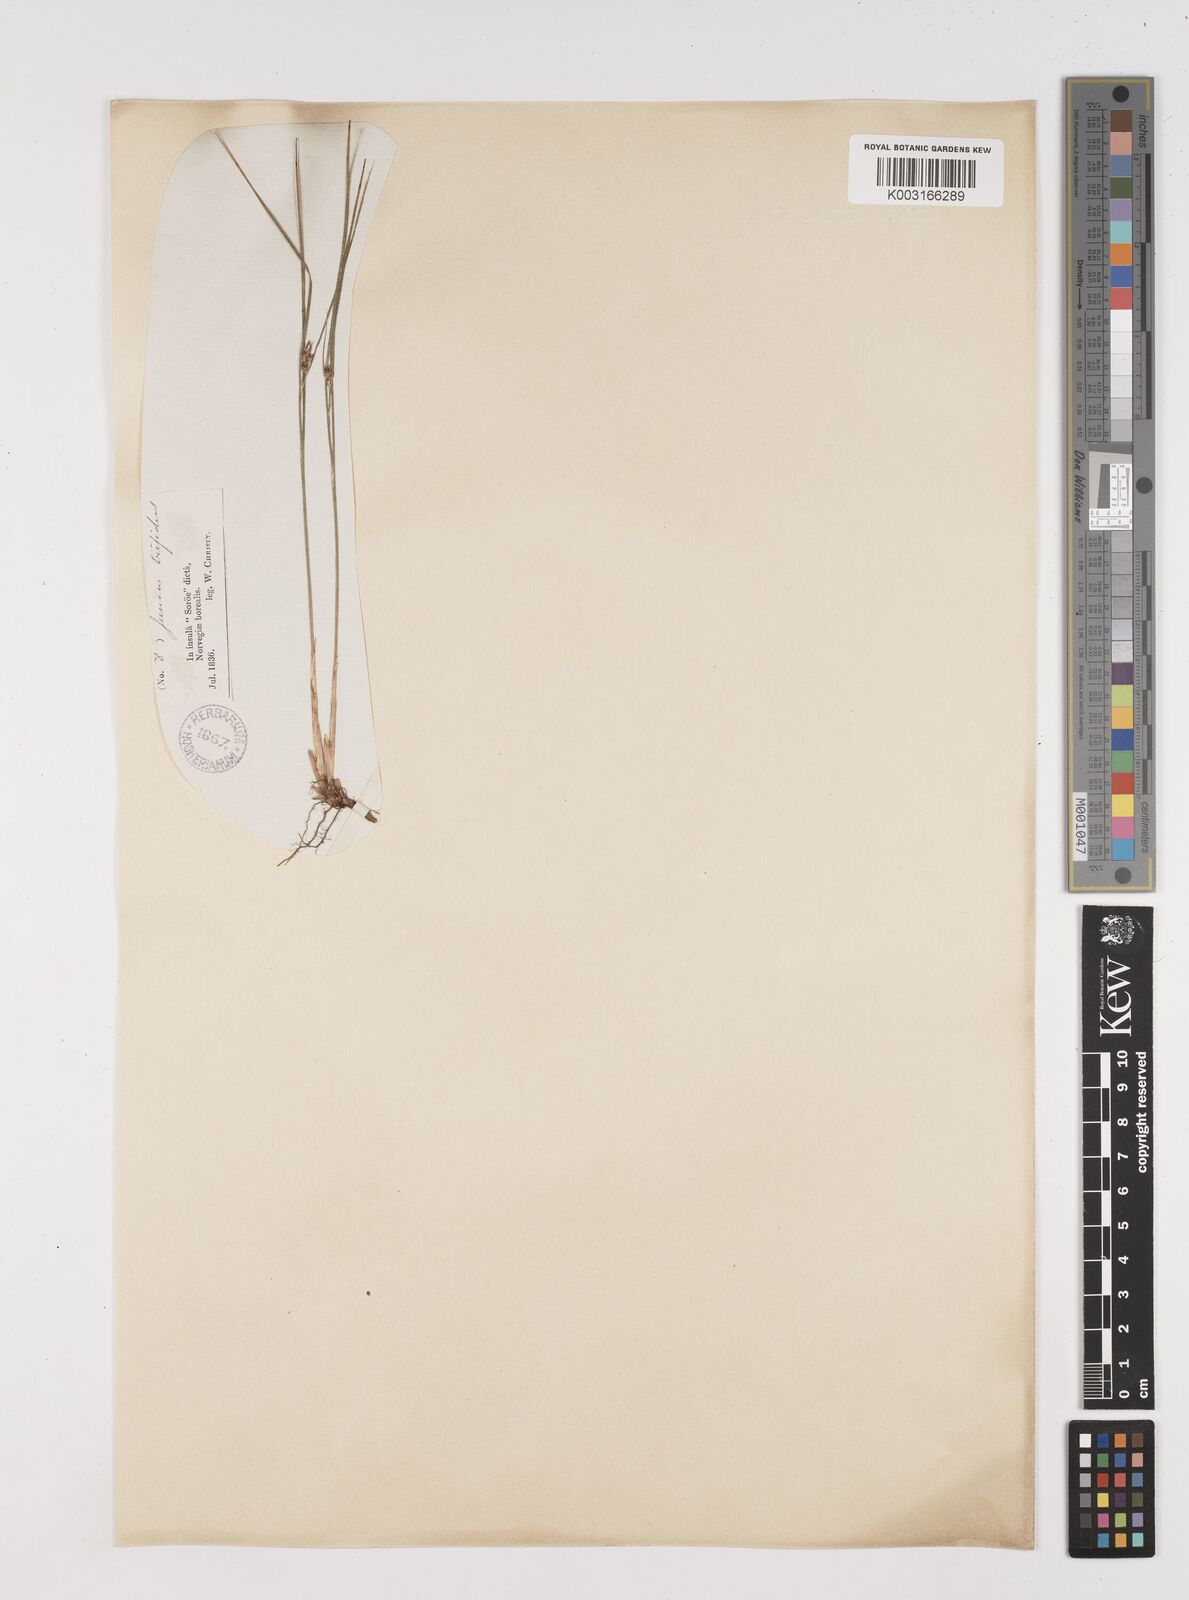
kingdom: Plantae
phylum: Tracheophyta
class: Liliopsida
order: Poales
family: Juncaceae
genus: Oreojuncus
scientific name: Oreojuncus trifidus
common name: Highland rush
